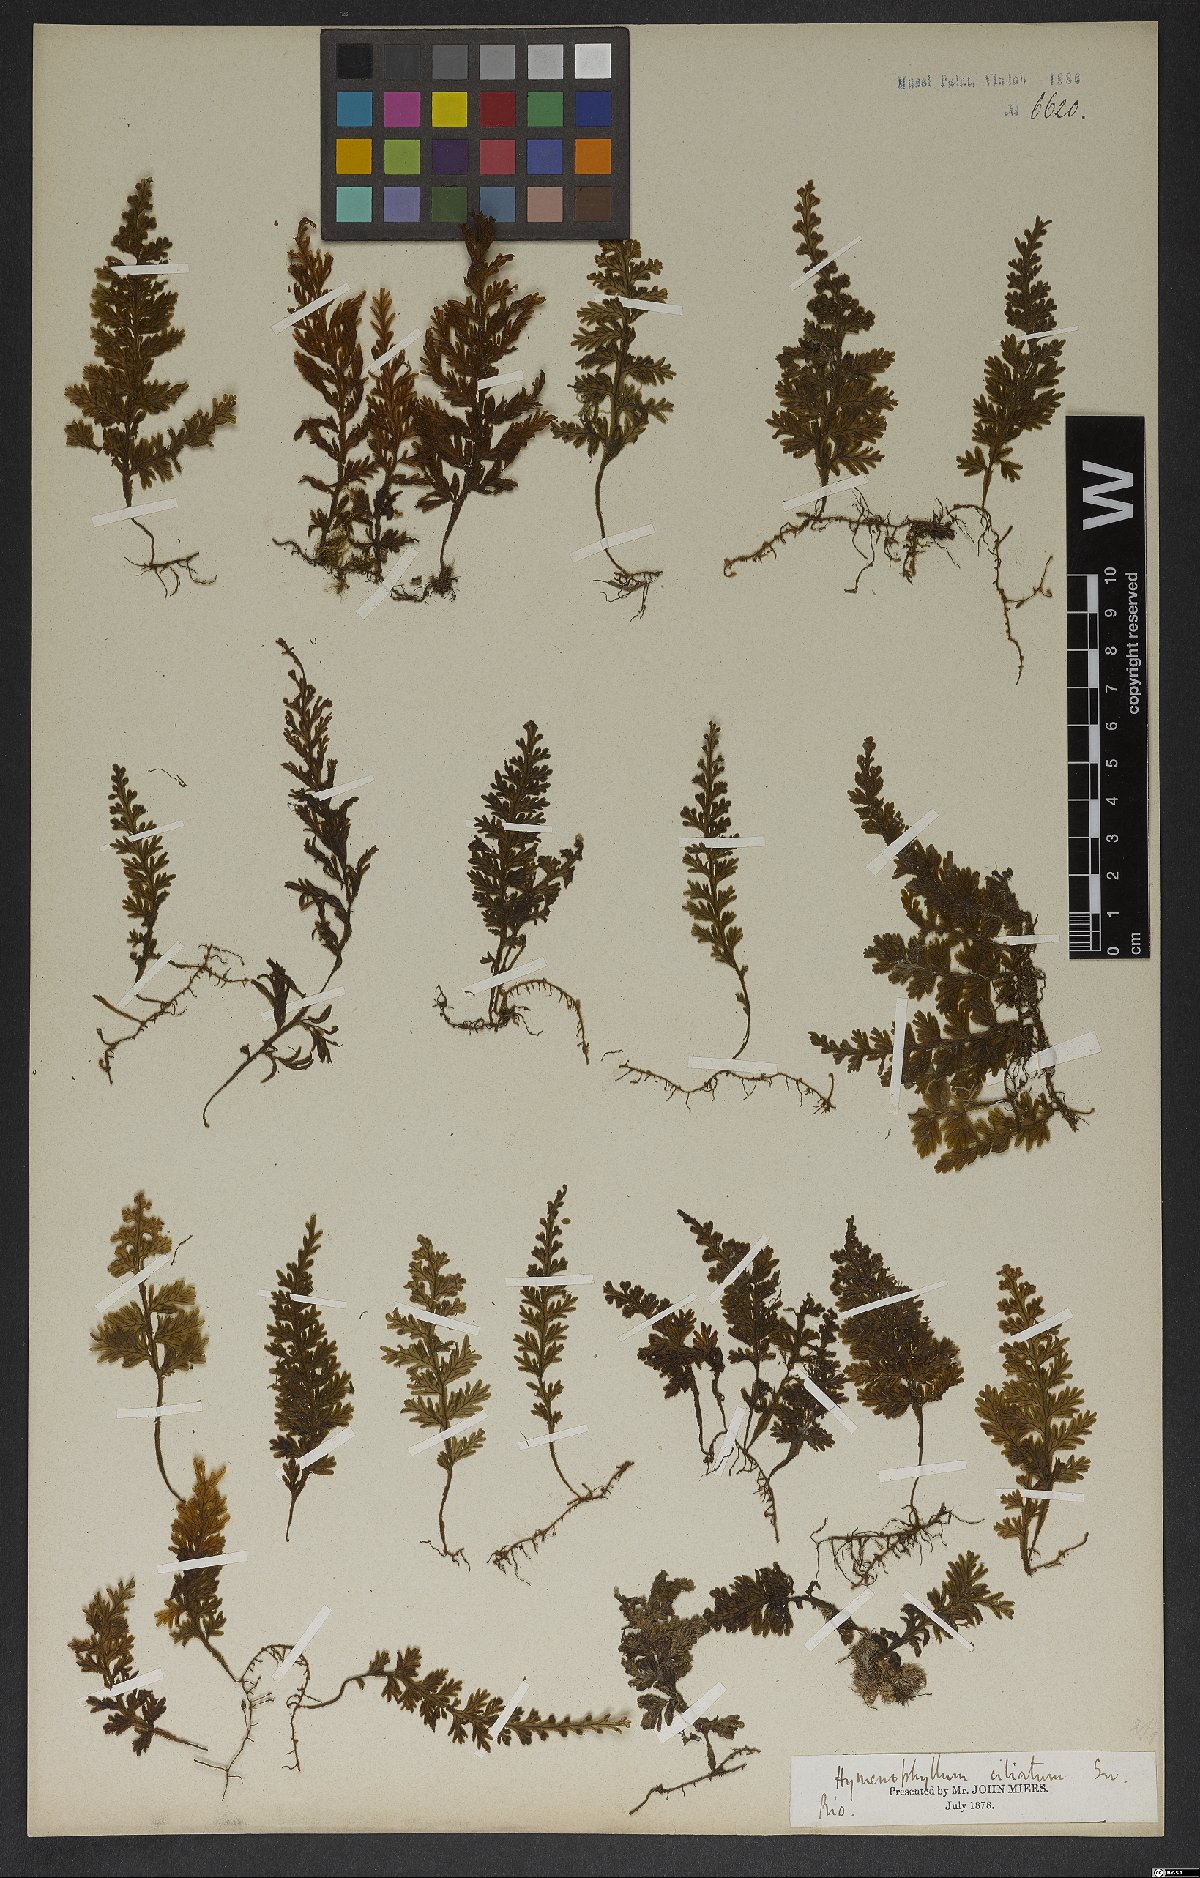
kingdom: Plantae
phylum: Tracheophyta
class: Polypodiopsida
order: Hymenophyllales
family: Hymenophyllaceae
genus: Hymenophyllum
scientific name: Hymenophyllum hirsutum
